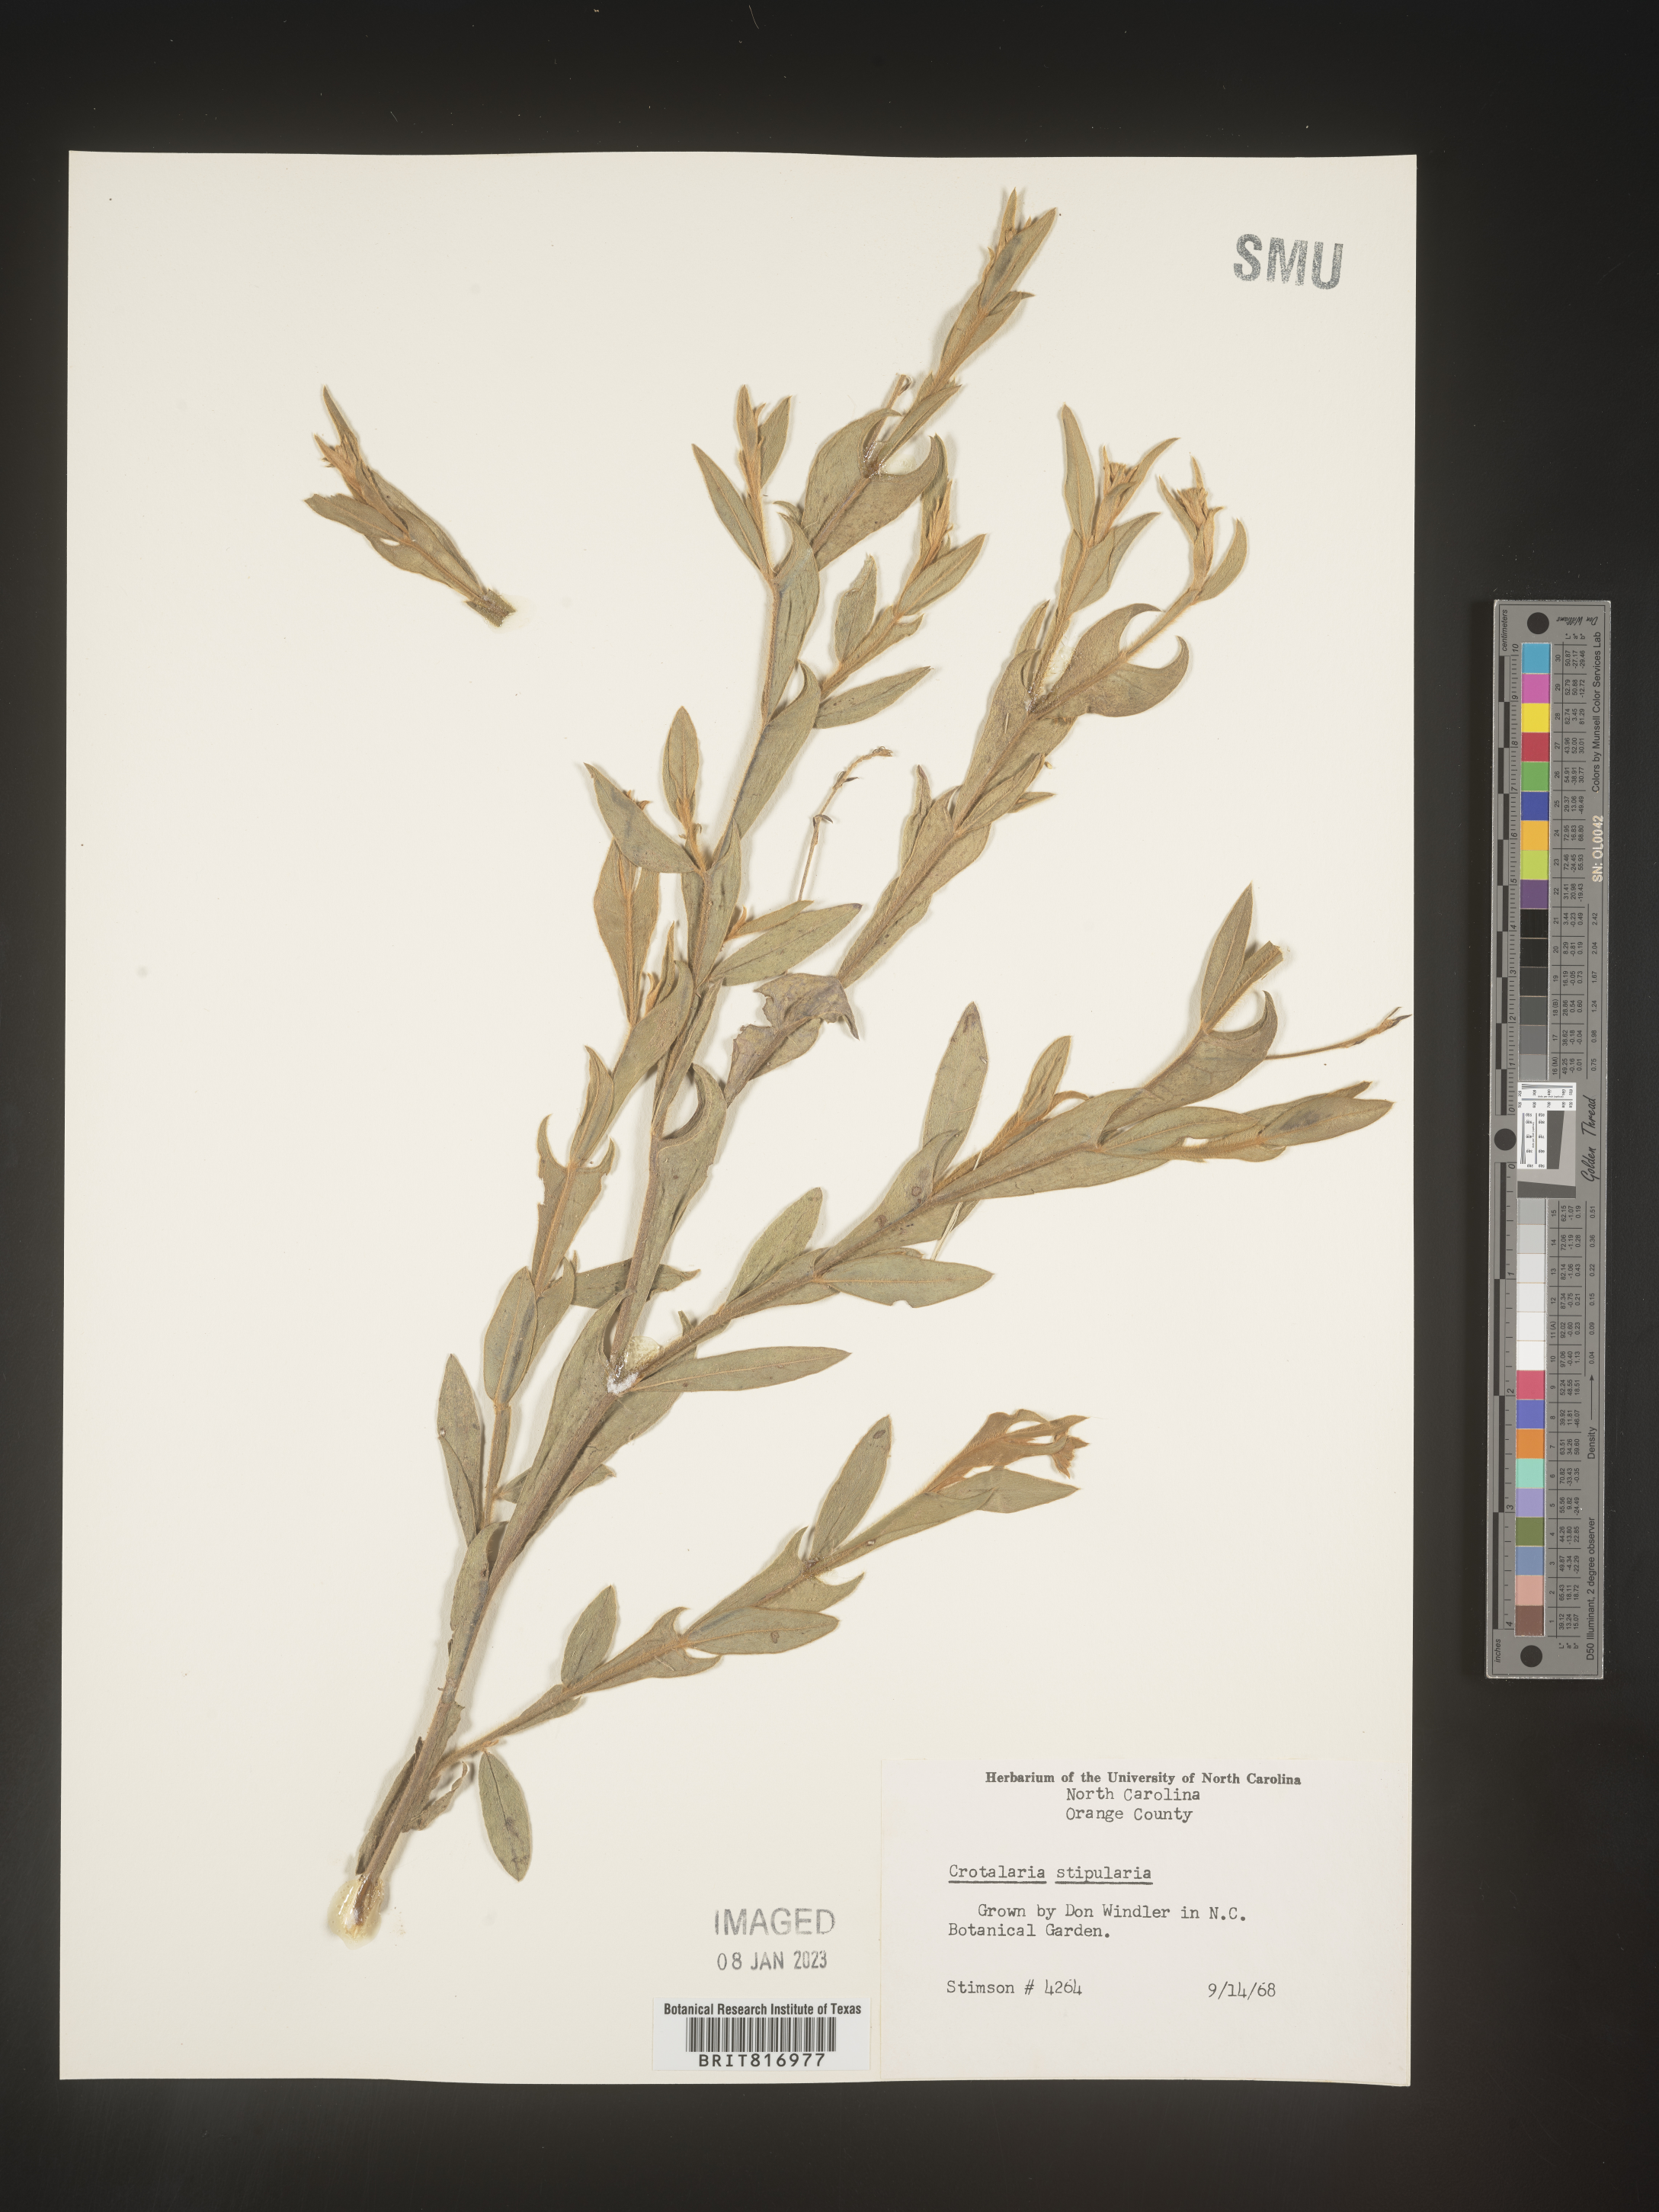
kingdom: Plantae
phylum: Tracheophyta
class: Magnoliopsida
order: Fabales
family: Fabaceae
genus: Crotalaria
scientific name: Crotalaria
